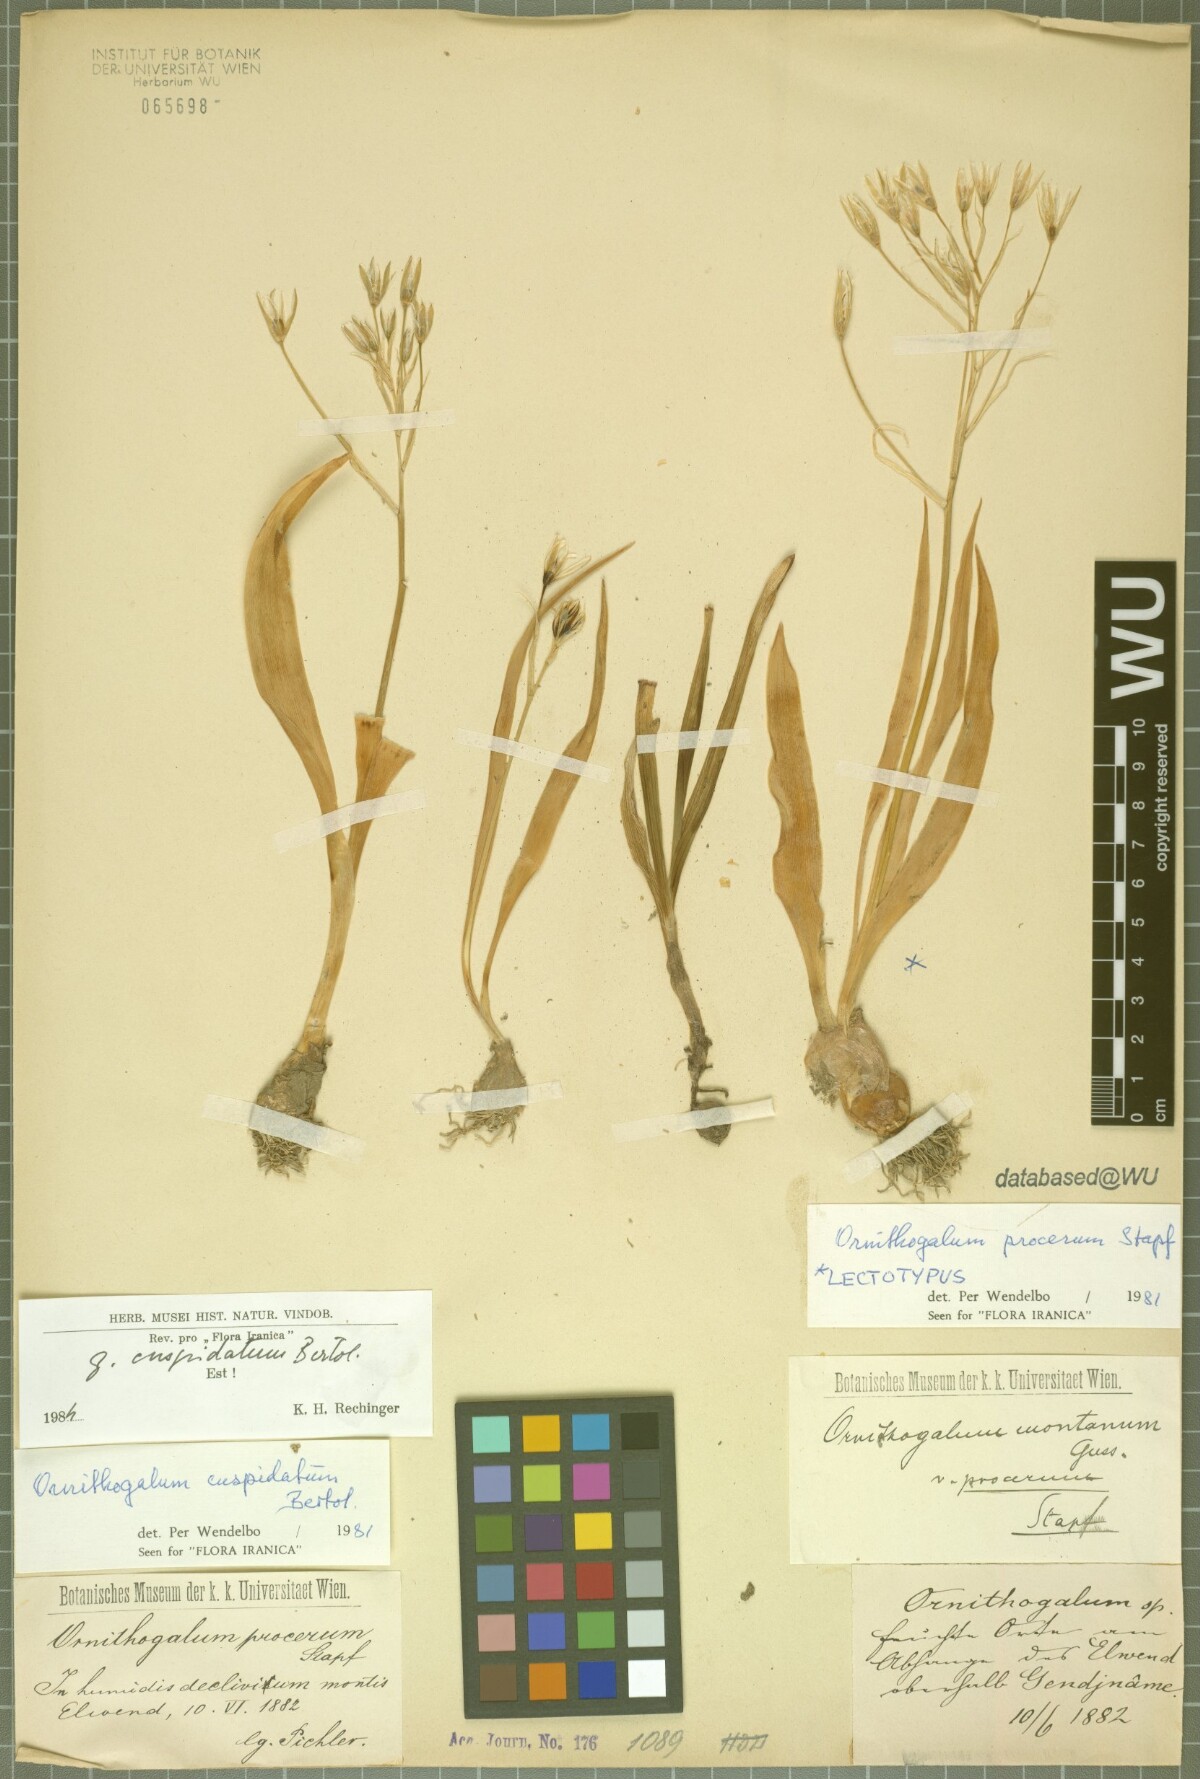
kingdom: Plantae
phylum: Tracheophyta
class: Liliopsida
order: Asparagales
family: Asparagaceae
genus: Ornithogalum
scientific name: Ornithogalum cuspidatum
